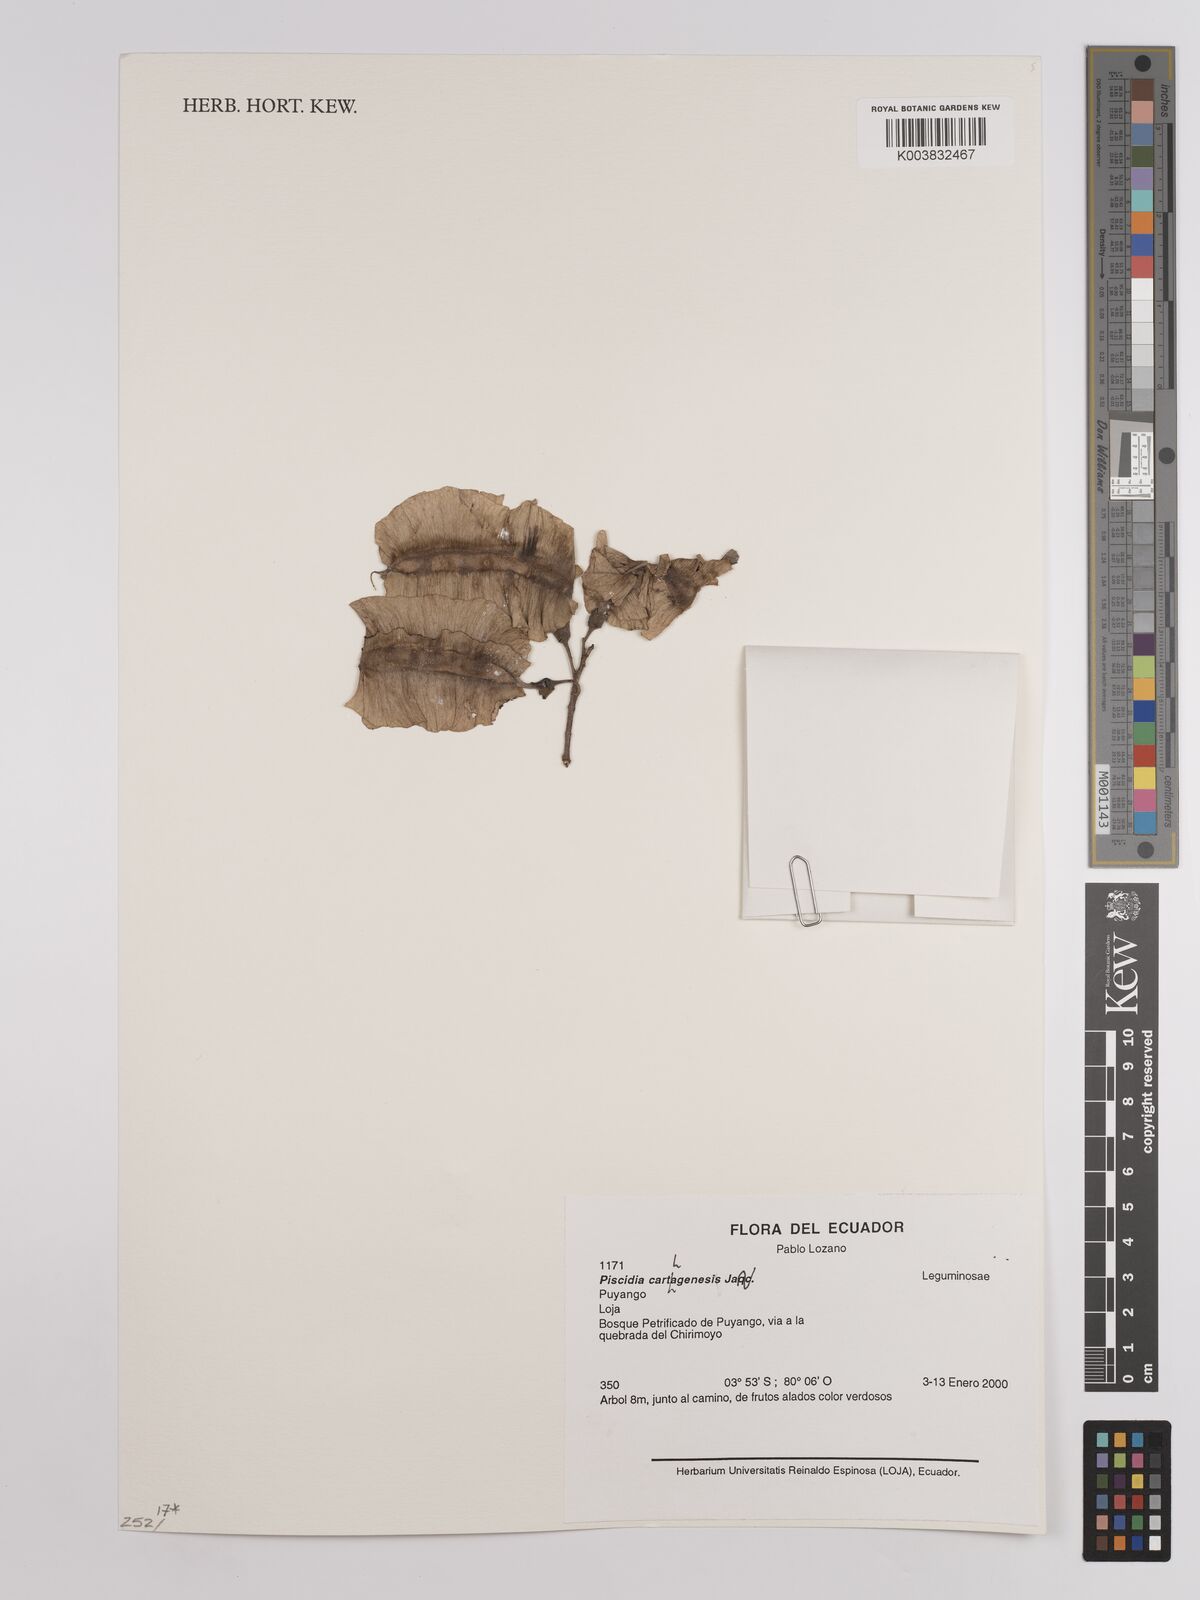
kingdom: Plantae
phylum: Tracheophyta
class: Magnoliopsida
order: Fabales
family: Fabaceae
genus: Piscidia
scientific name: Piscidia carthagenensis
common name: Stinkwood
